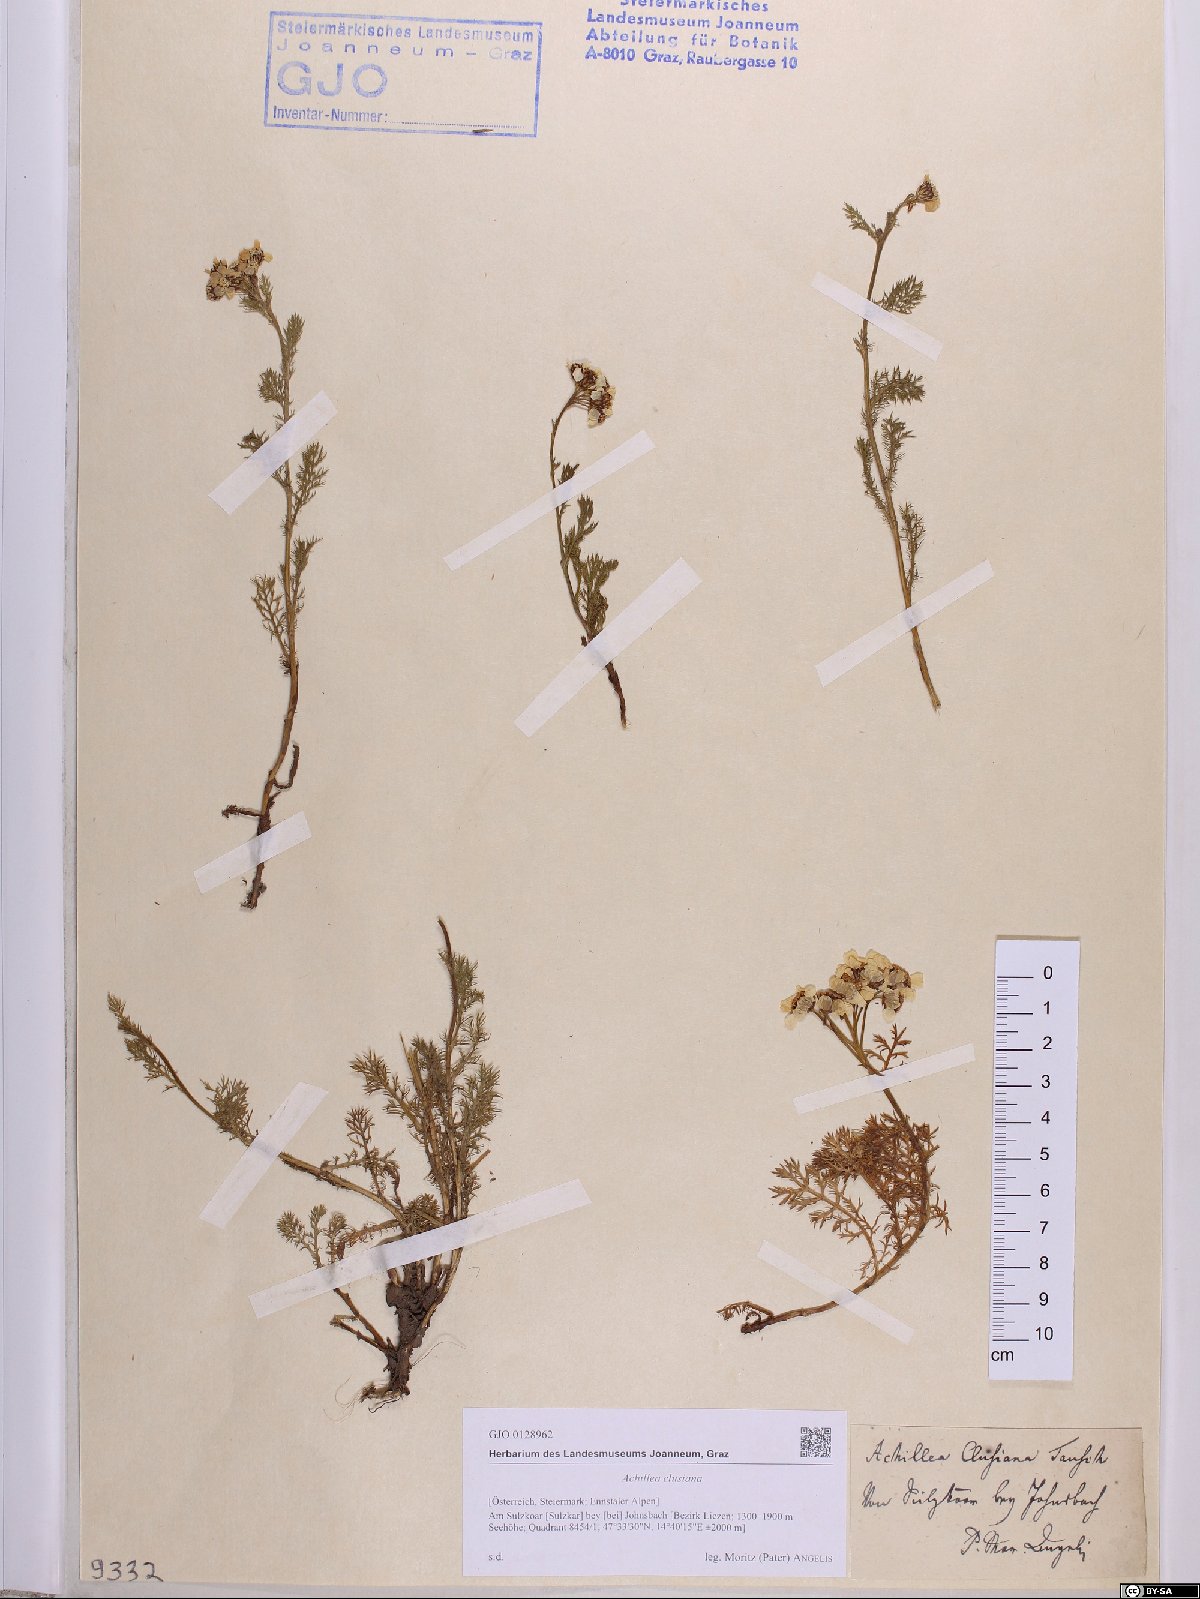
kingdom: Plantae
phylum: Tracheophyta
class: Magnoliopsida
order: Asterales
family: Asteraceae
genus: Achillea
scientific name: Achillea clusiana
